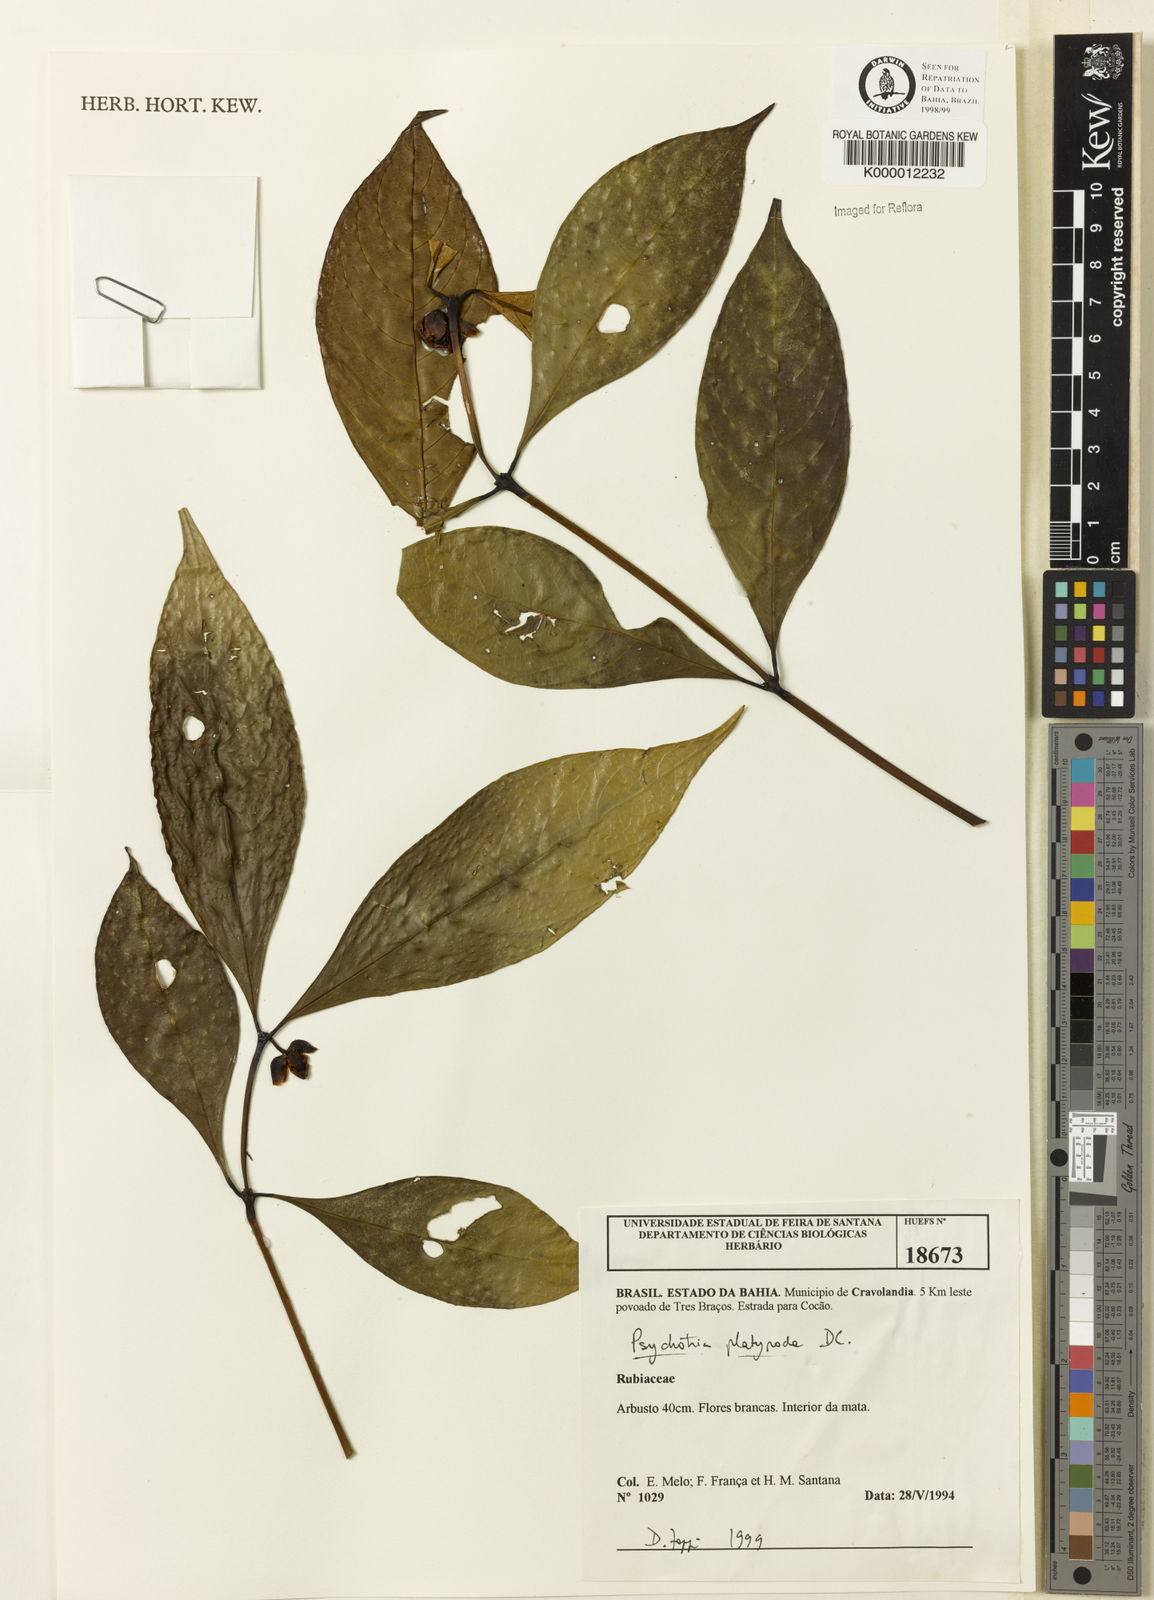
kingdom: Plantae
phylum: Tracheophyta
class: Magnoliopsida
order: Gentianales
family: Rubiaceae
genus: Palicourea
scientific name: Palicourea dichotoma
